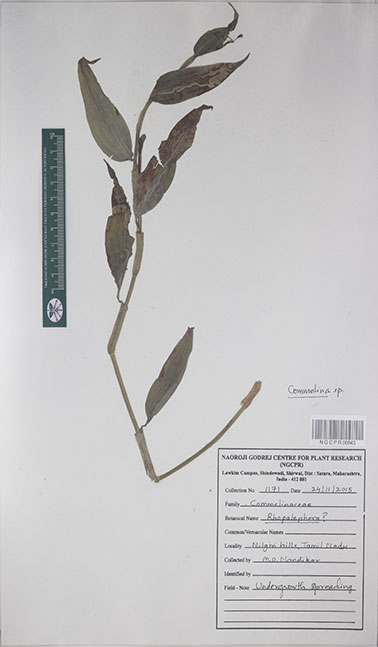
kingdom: Plantae
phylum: Tracheophyta
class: Liliopsida
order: Commelinales
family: Commelinaceae
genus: Commelina
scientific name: Commelina
